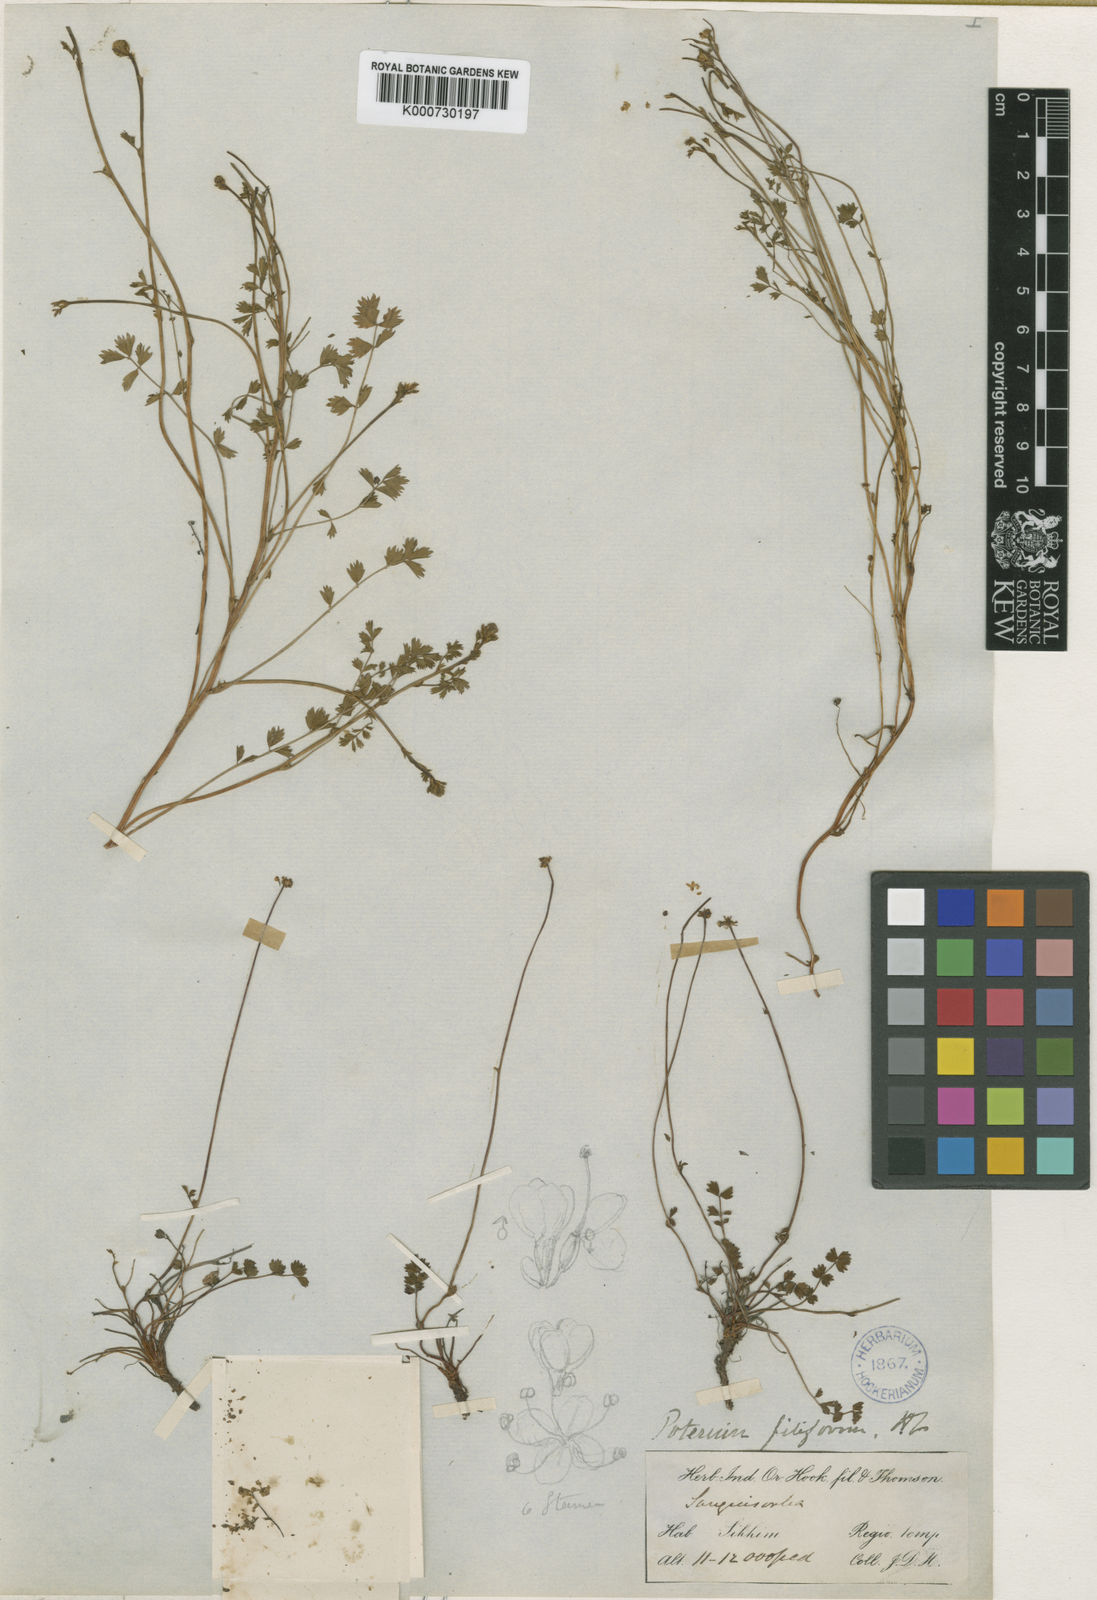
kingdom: Plantae
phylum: Tracheophyta
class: Magnoliopsida
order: Rosales
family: Rosaceae
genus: Poterium
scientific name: Poterium filiforme
